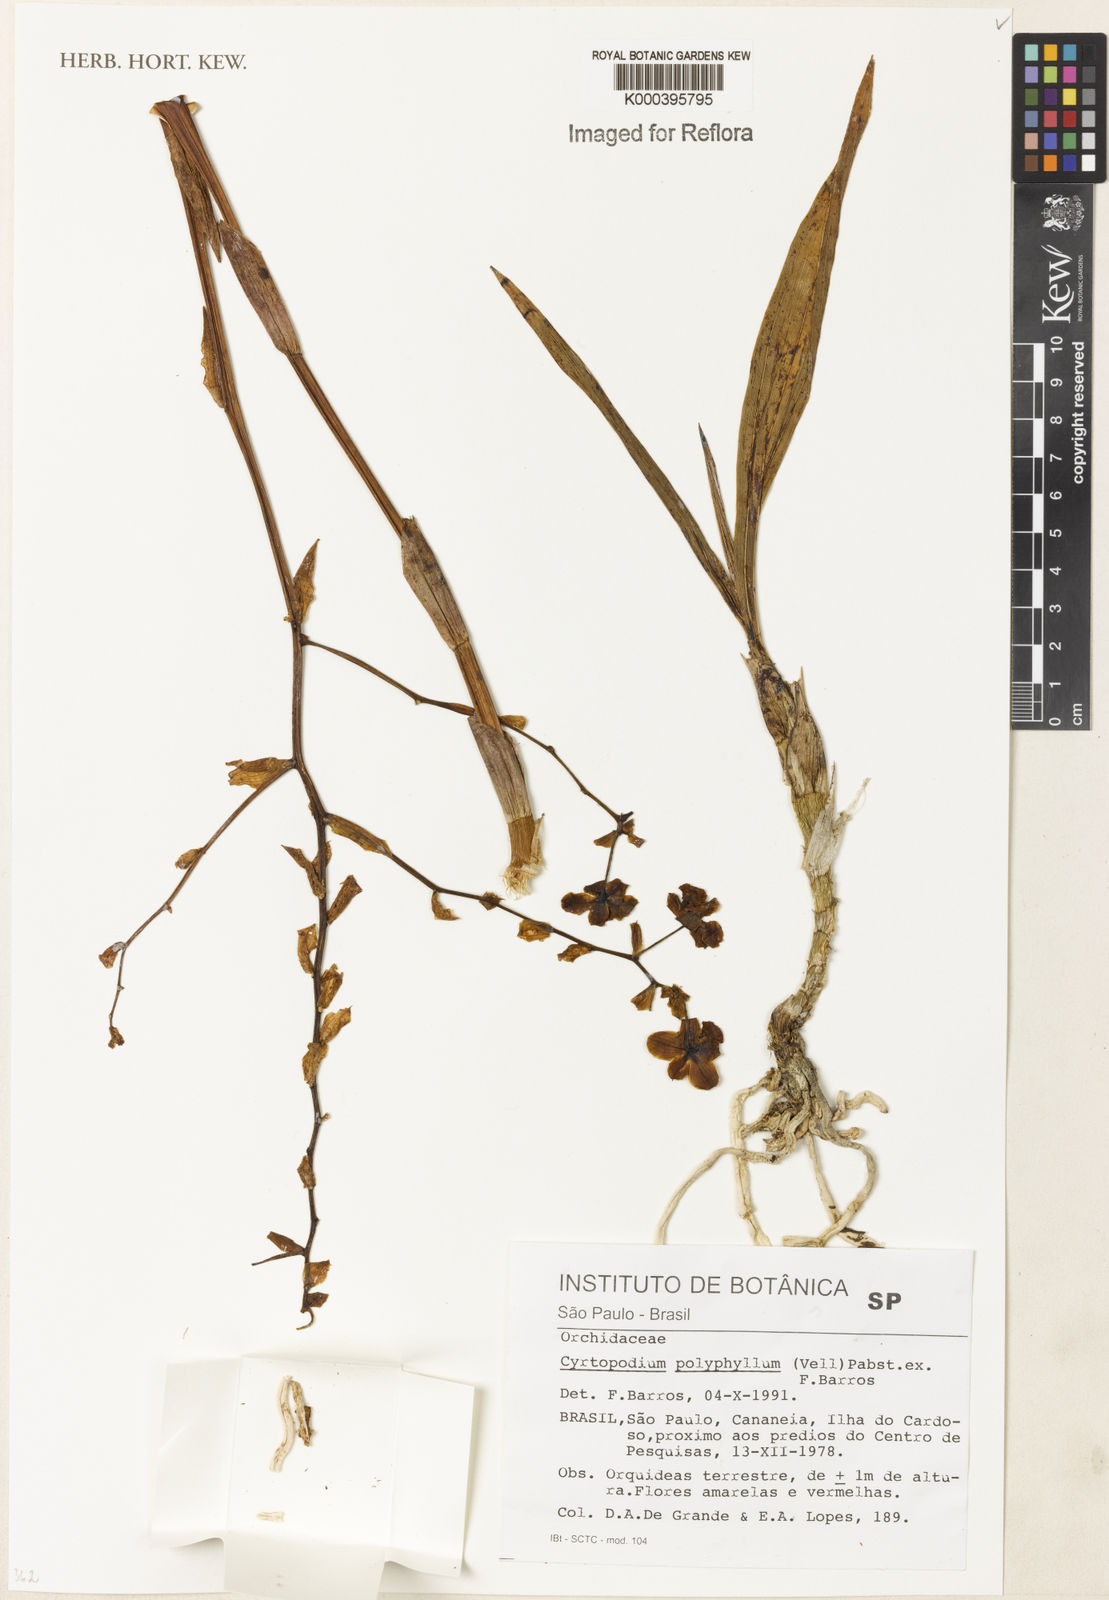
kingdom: Plantae
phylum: Tracheophyta
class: Liliopsida
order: Asparagales
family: Orchidaceae
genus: Cyrtopodium
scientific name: Cyrtopodium flavum
